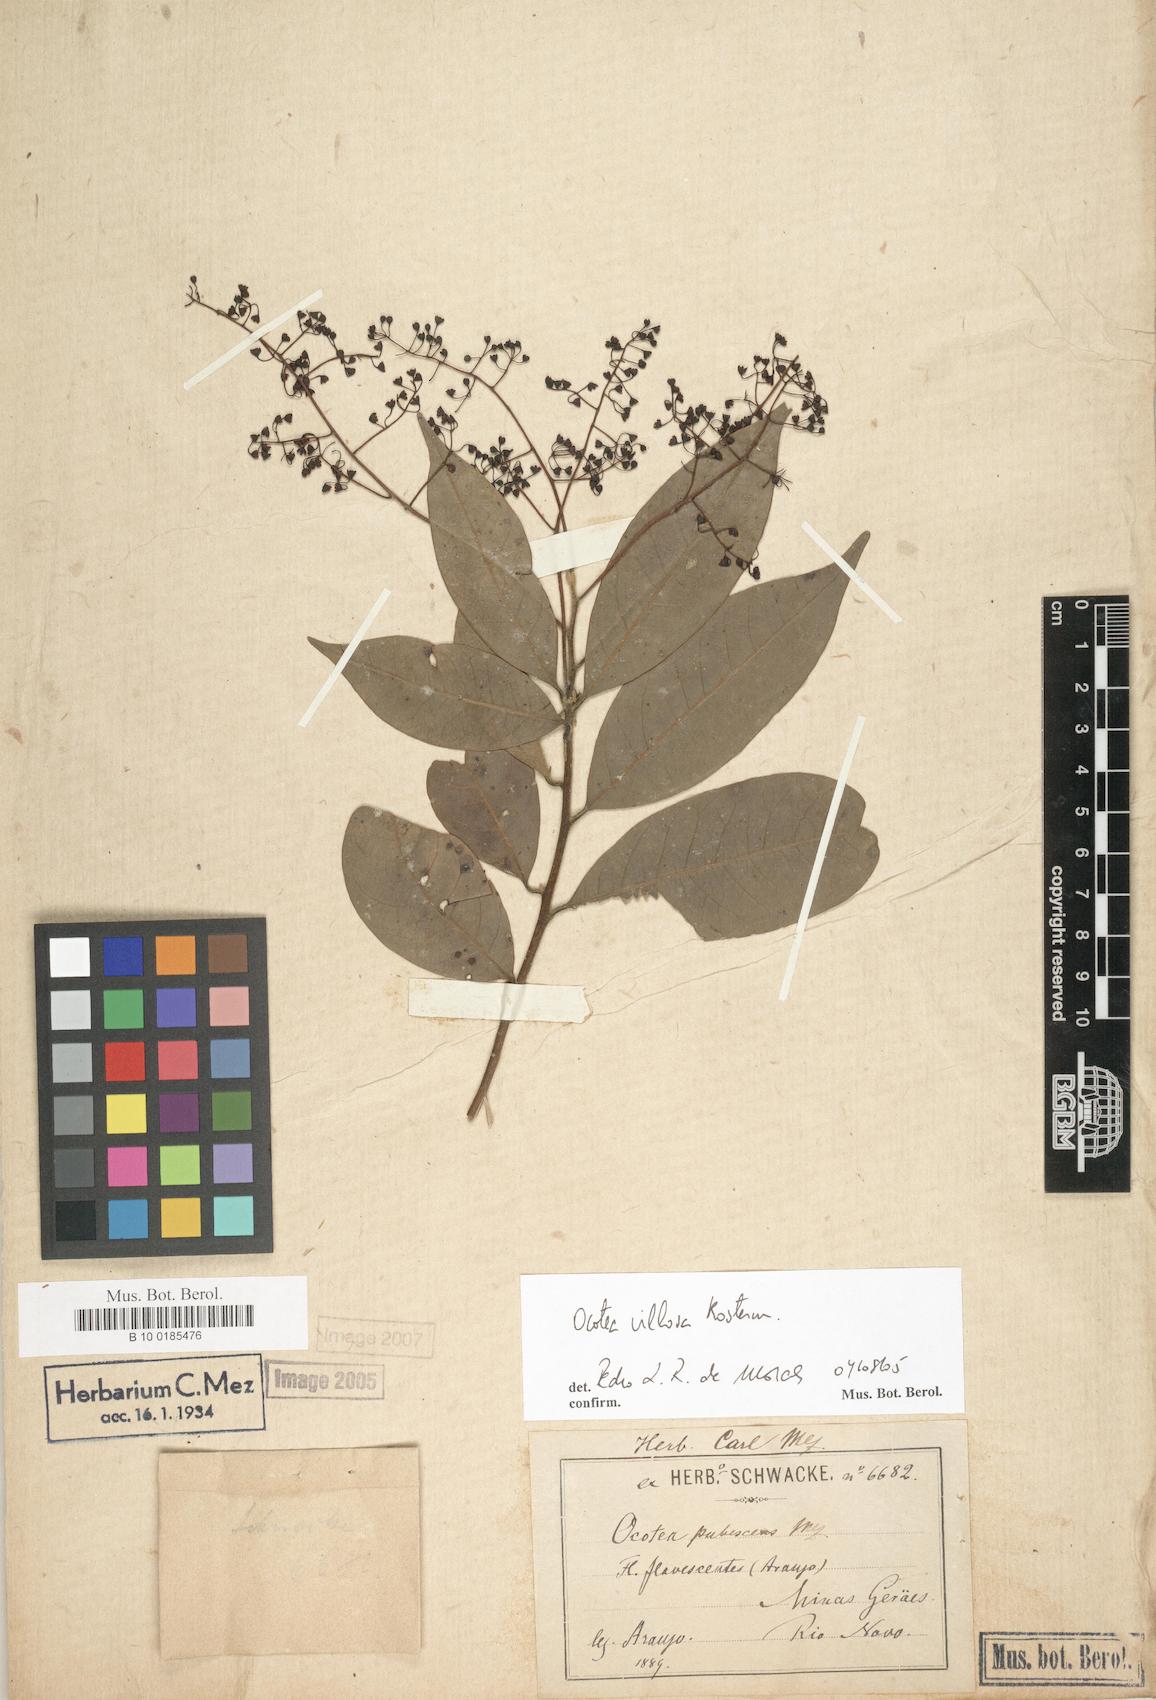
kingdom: Plantae
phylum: Tracheophyta
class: Magnoliopsida
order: Laurales
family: Lauraceae
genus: Ocotea
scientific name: Ocotea villosa
